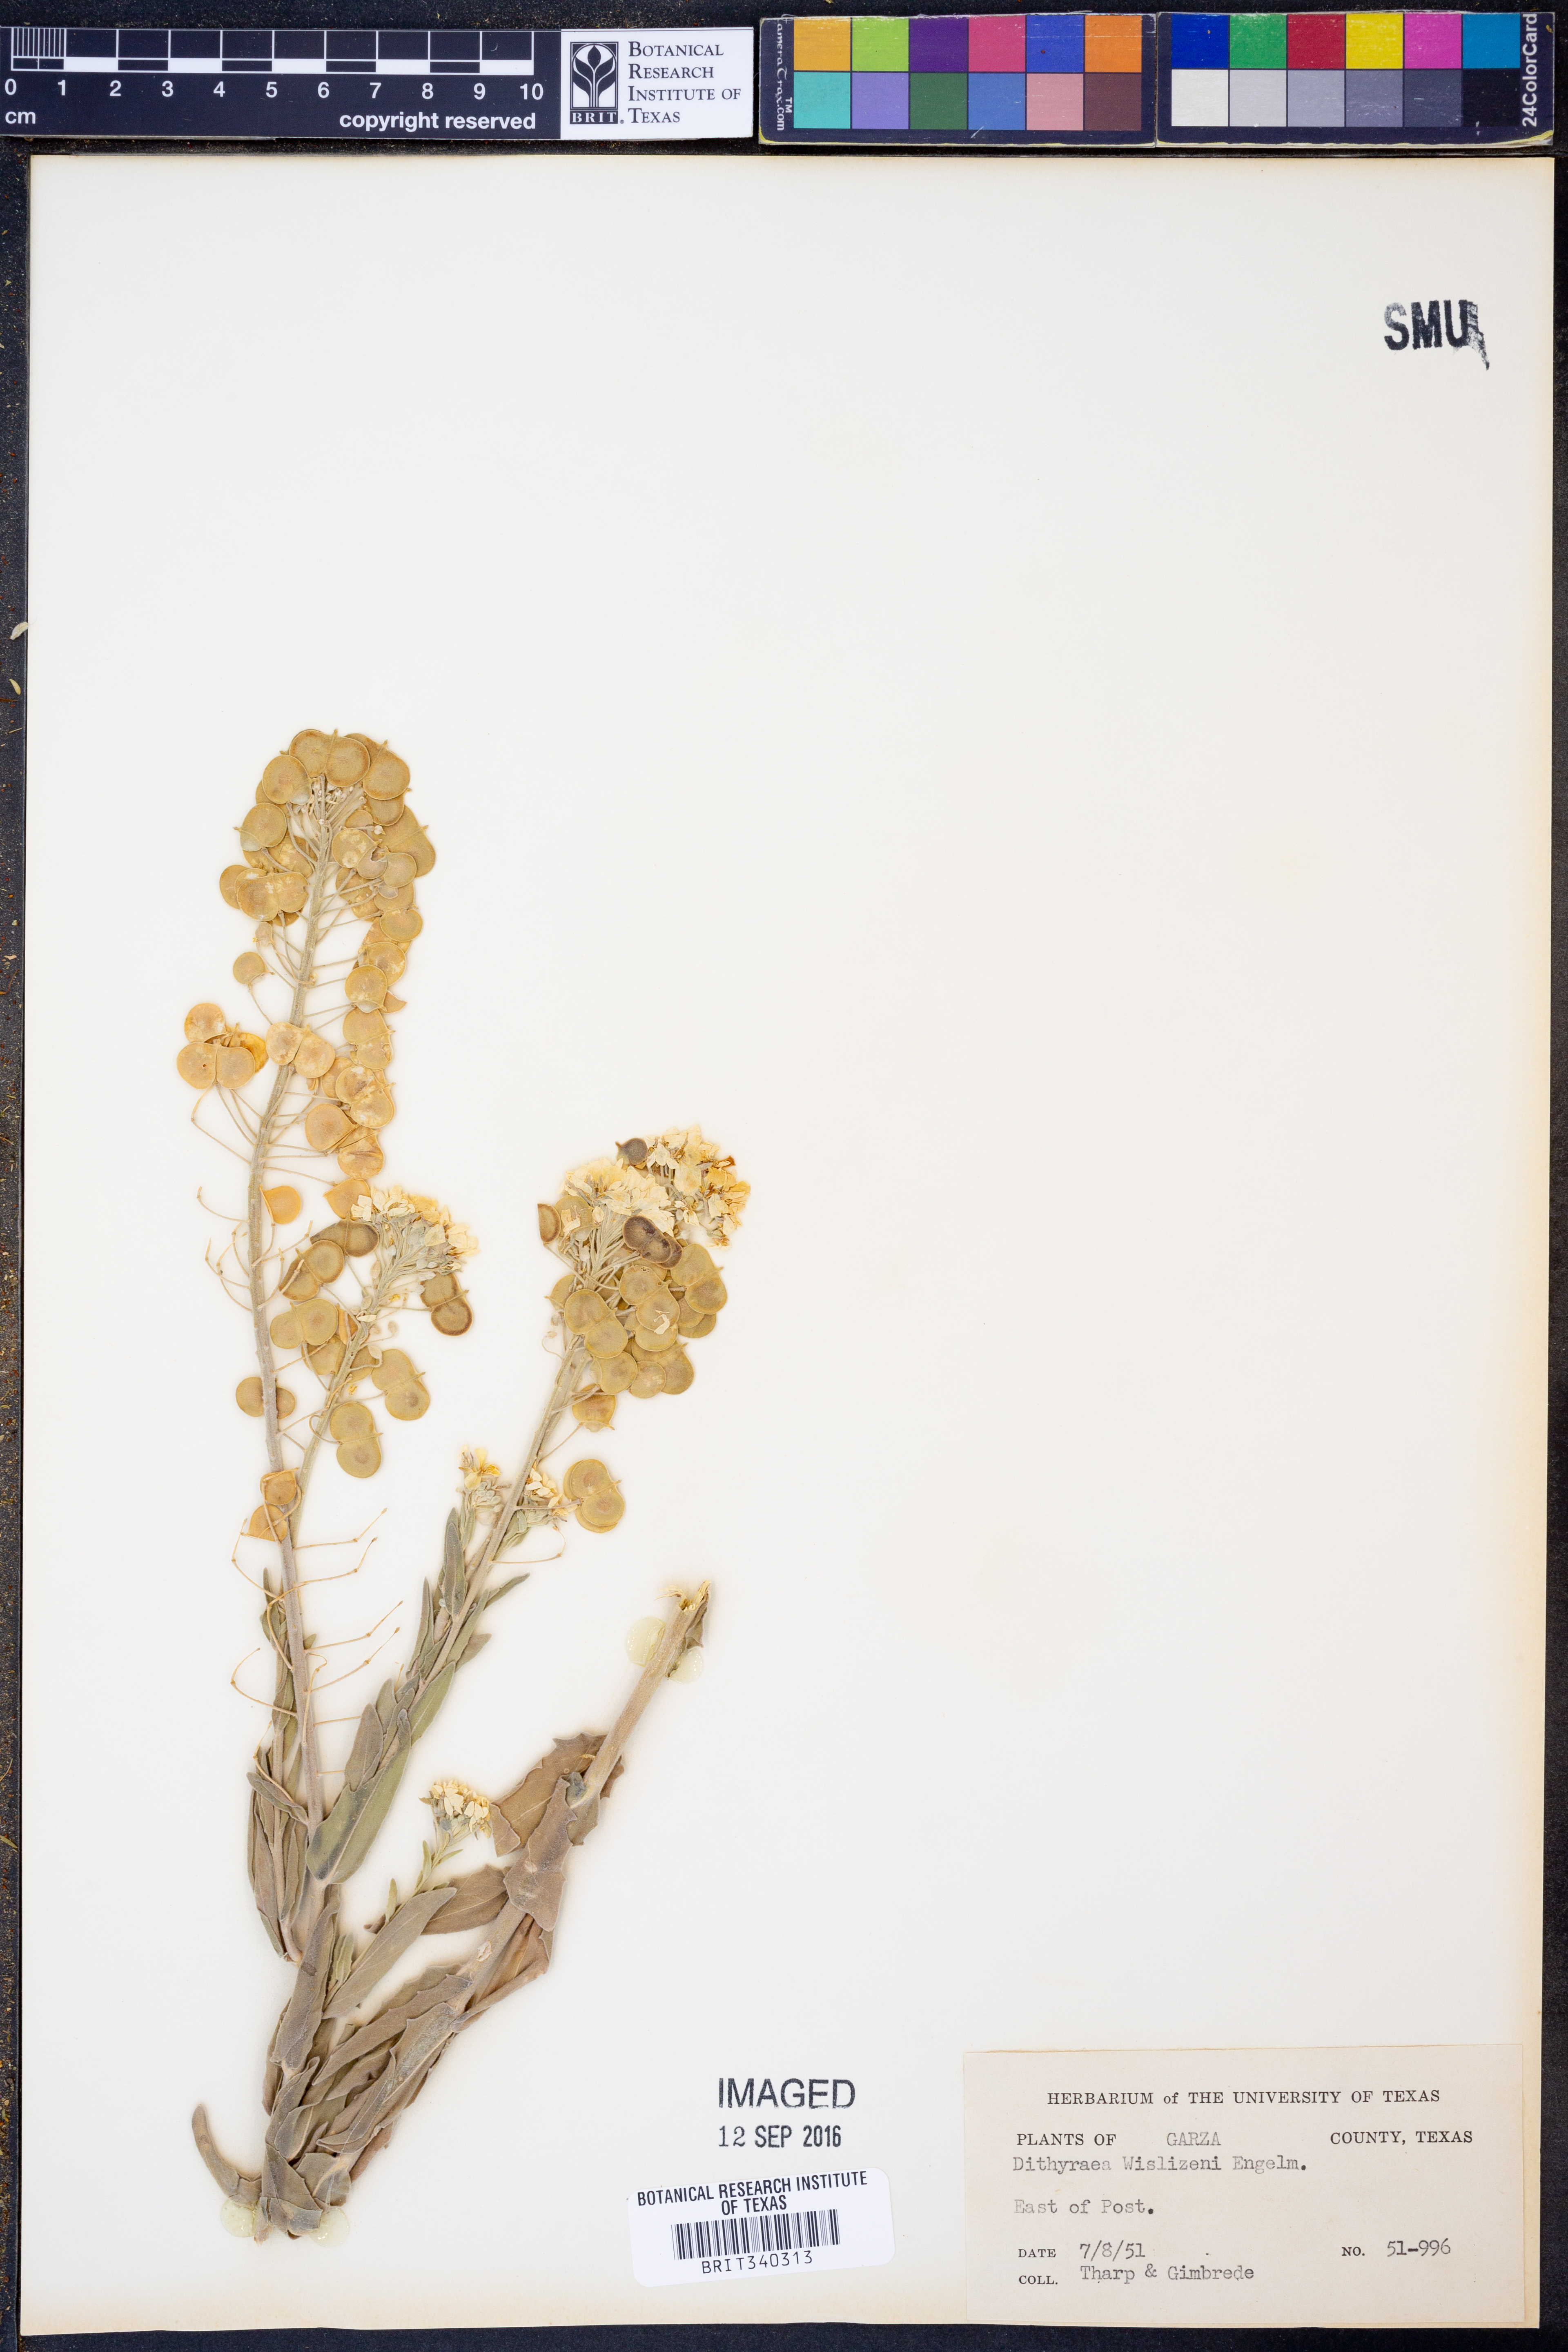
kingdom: Plantae
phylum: Tracheophyta
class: Magnoliopsida
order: Brassicales
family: Brassicaceae
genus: Dimorphocarpa
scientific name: Dimorphocarpa wislizenii
